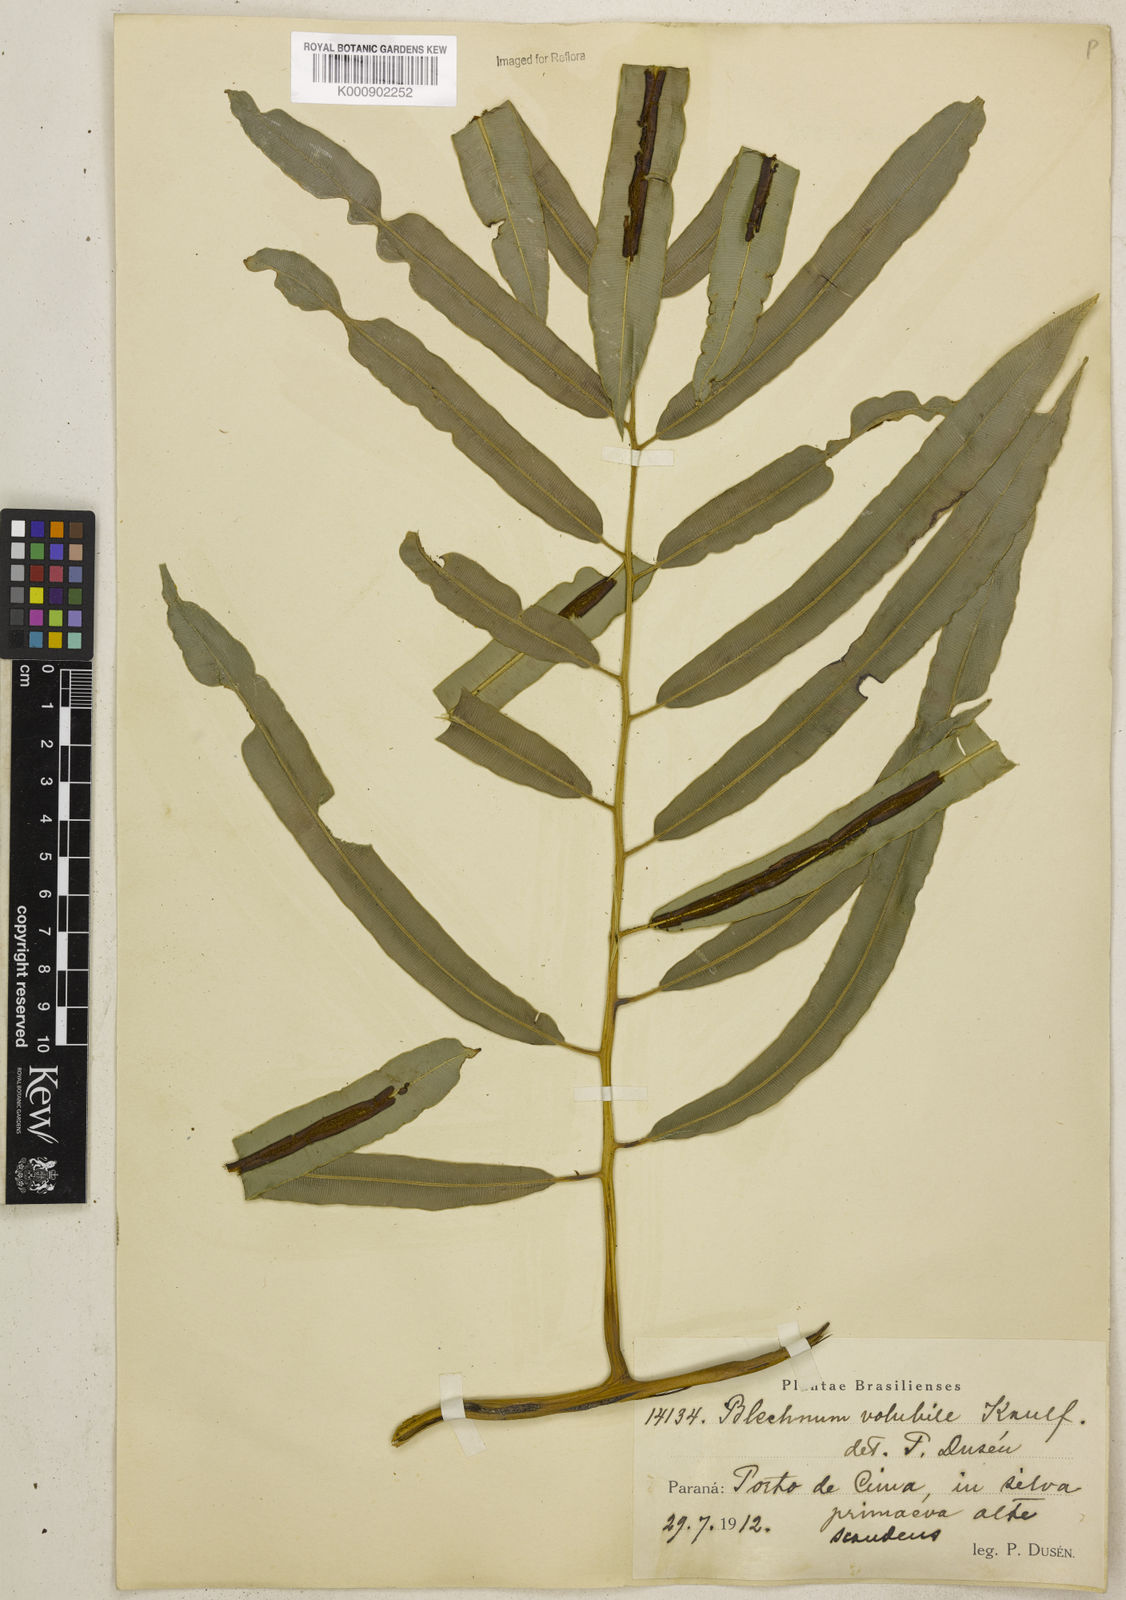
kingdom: Plantae
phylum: Tracheophyta
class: Polypodiopsida
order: Polypodiales
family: Blechnaceae
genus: Salpichlaena
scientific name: Salpichlaena volubilis
